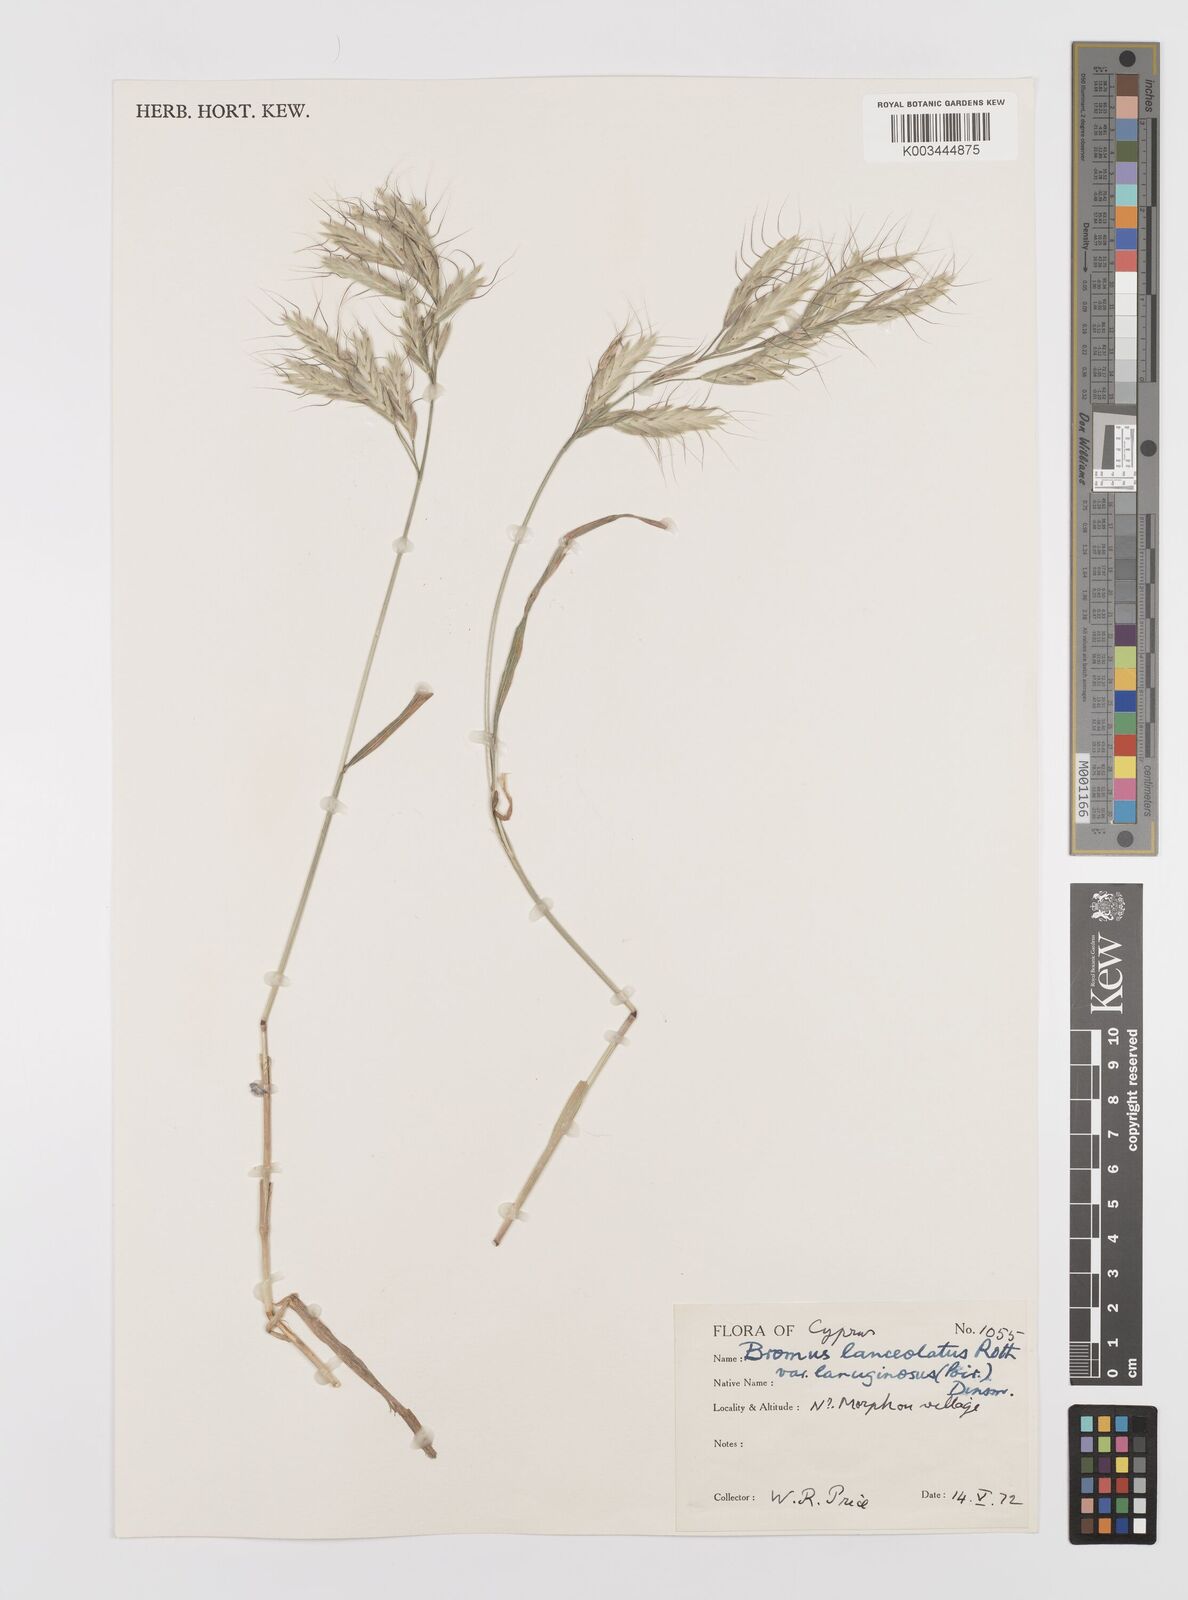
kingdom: Plantae
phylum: Tracheophyta
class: Liliopsida
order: Poales
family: Poaceae
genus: Bromus
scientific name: Bromus lanceolatus
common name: Mediterranean brome
